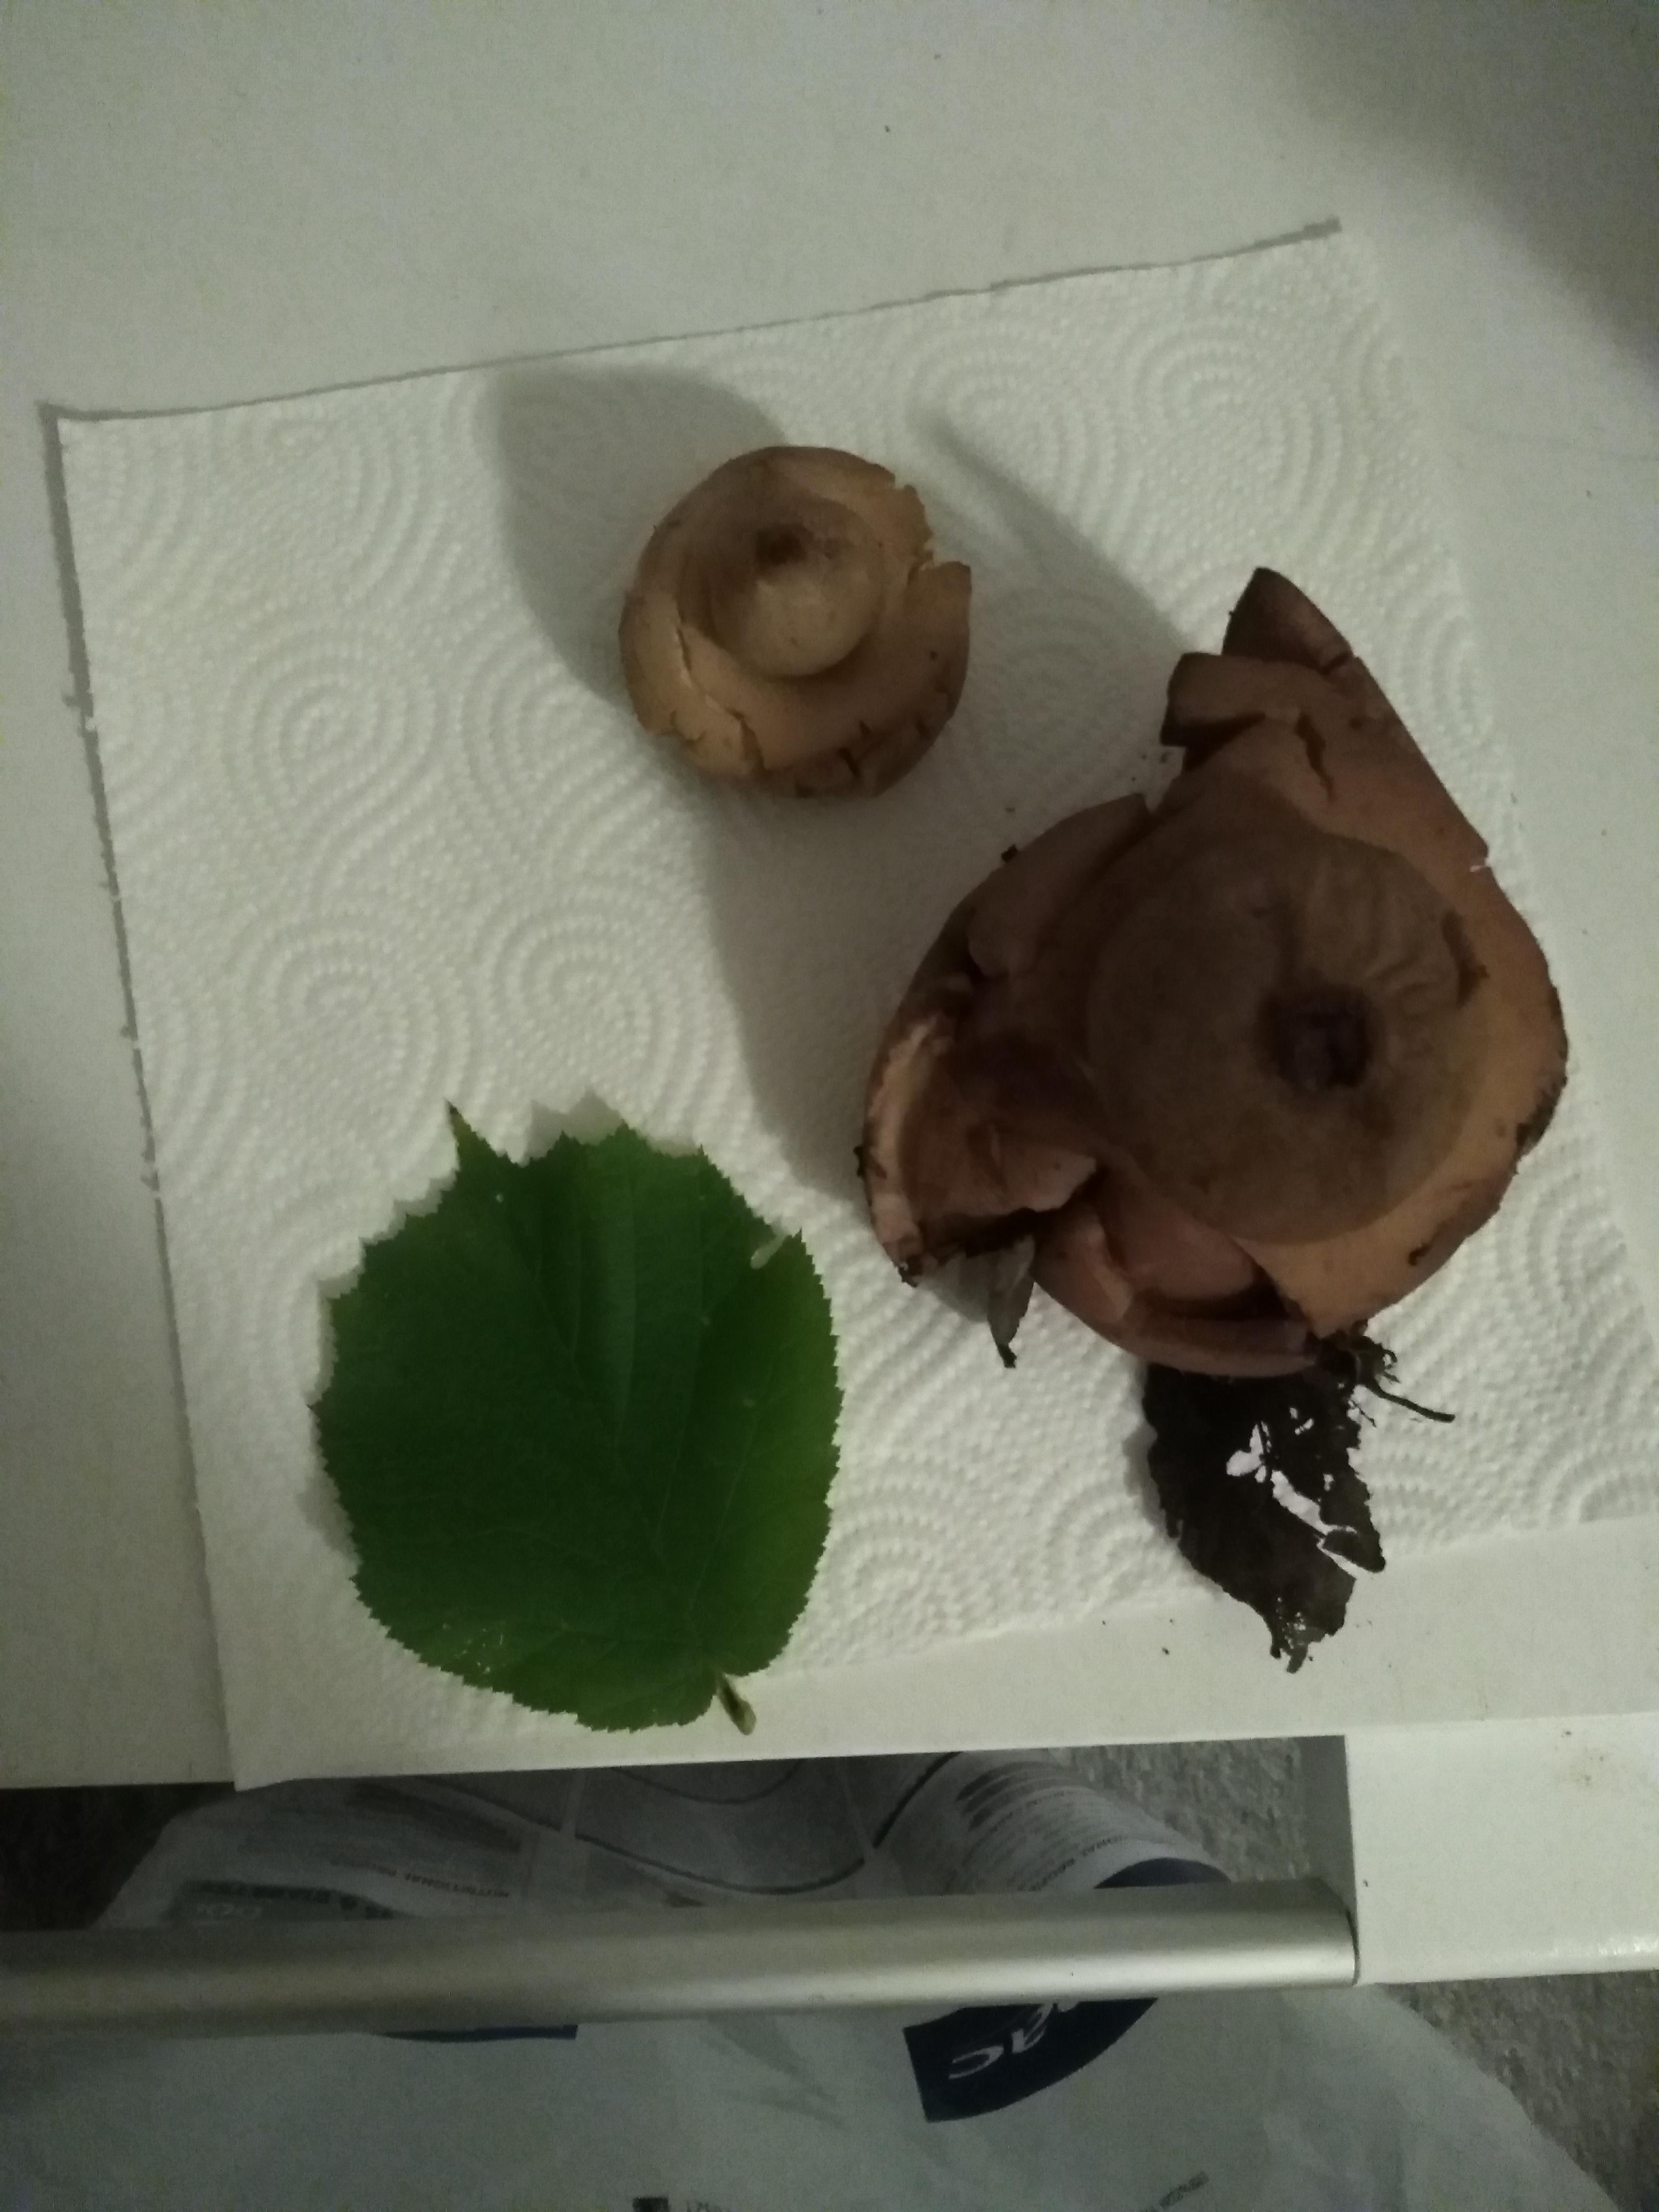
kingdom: Fungi
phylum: Basidiomycota
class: Agaricomycetes
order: Geastrales
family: Geastraceae
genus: Geastrum
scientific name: Geastrum michelianum
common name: kødet stjernebold
